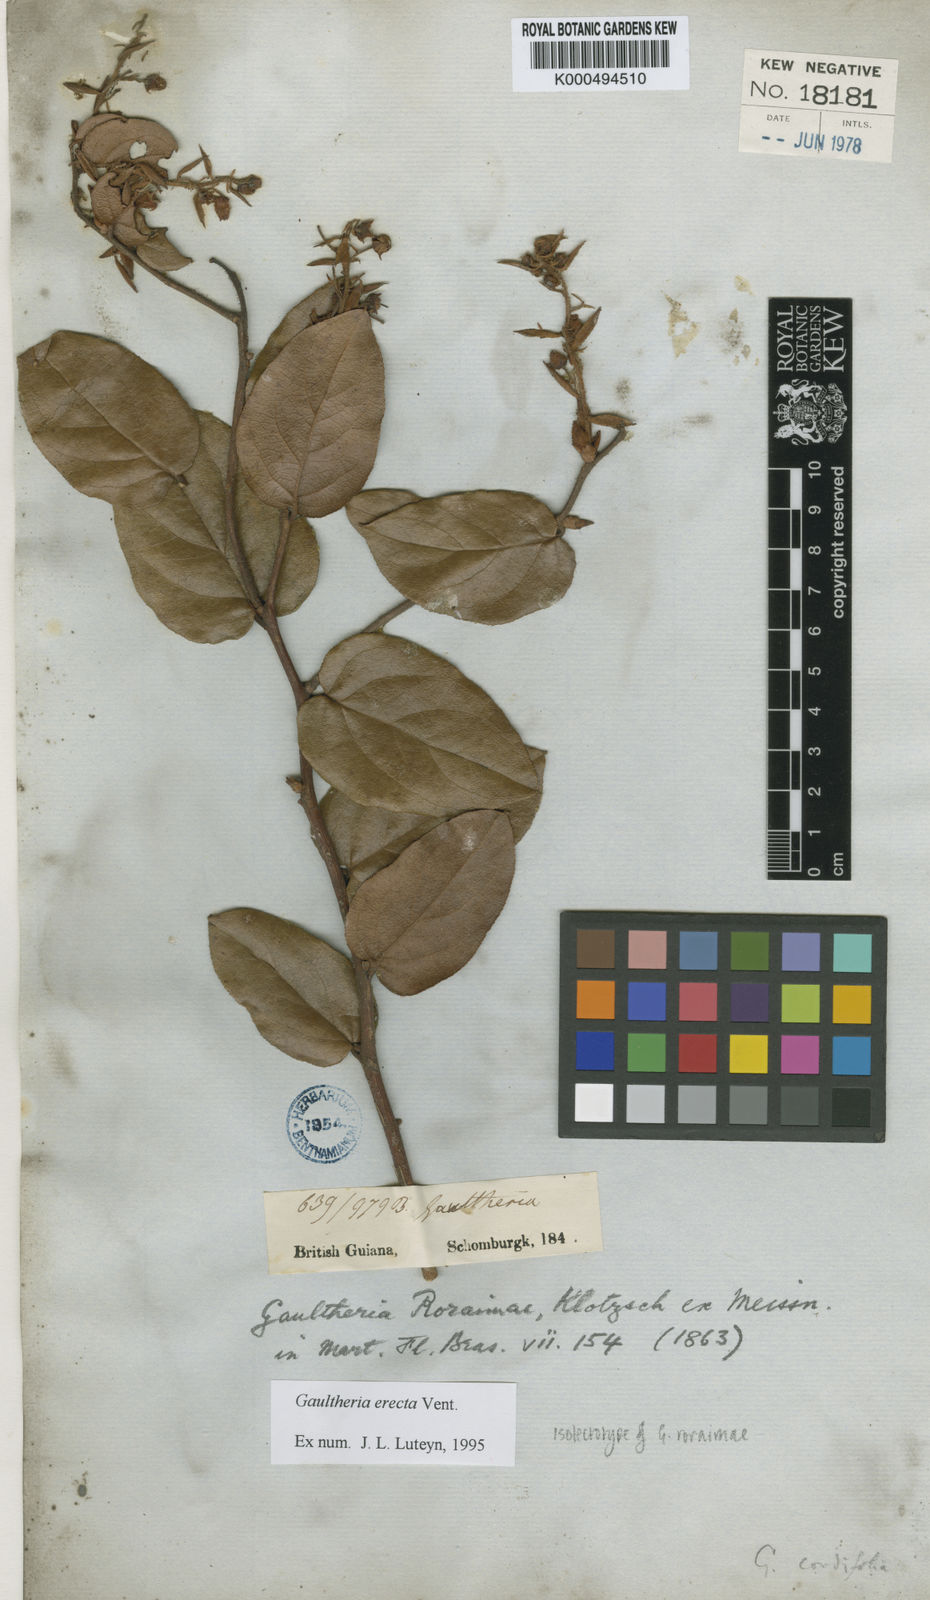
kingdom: Plantae
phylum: Tracheophyta
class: Magnoliopsida
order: Ericales
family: Ericaceae
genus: Gaultheria
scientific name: Gaultheria erecta
